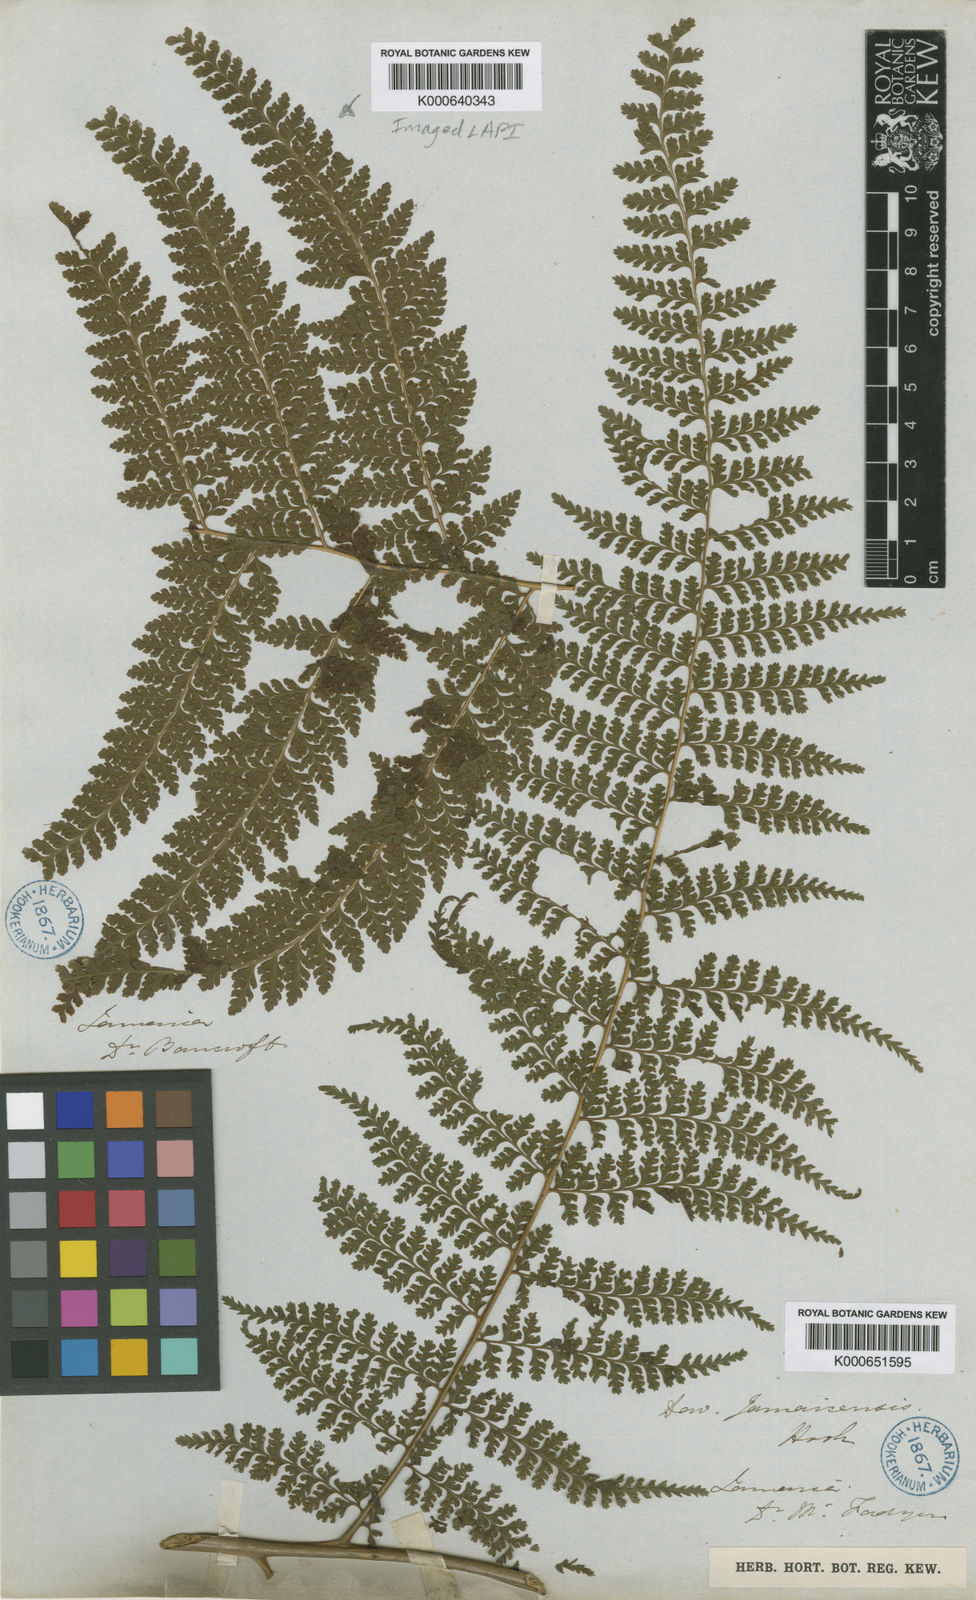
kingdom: Plantae
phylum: Tracheophyta
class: Polypodiopsida
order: Polypodiales
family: Dennstaedtiaceae
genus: Microlepia
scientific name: Microlepia
